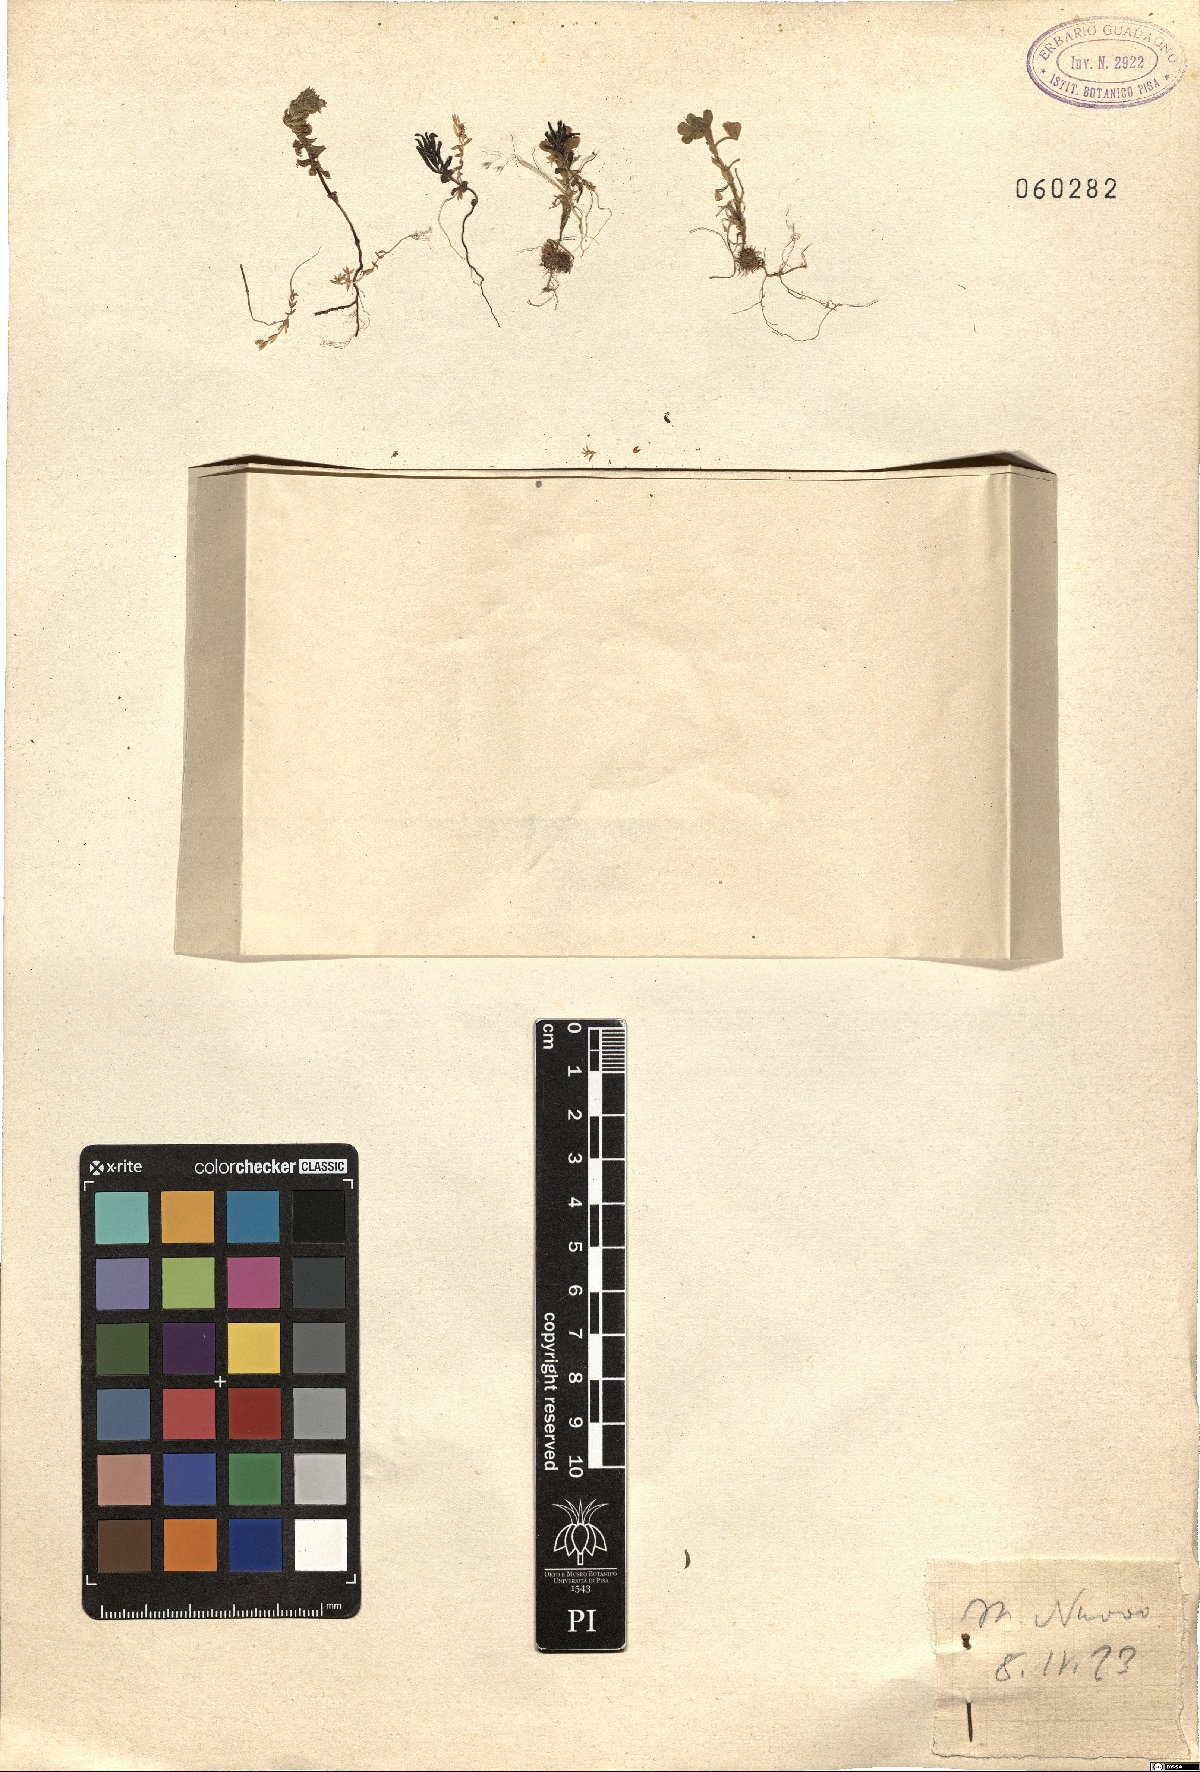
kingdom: Plantae
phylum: Tracheophyta
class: Magnoliopsida
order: Fabales
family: Fabaceae
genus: Medicago
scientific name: Medicago
